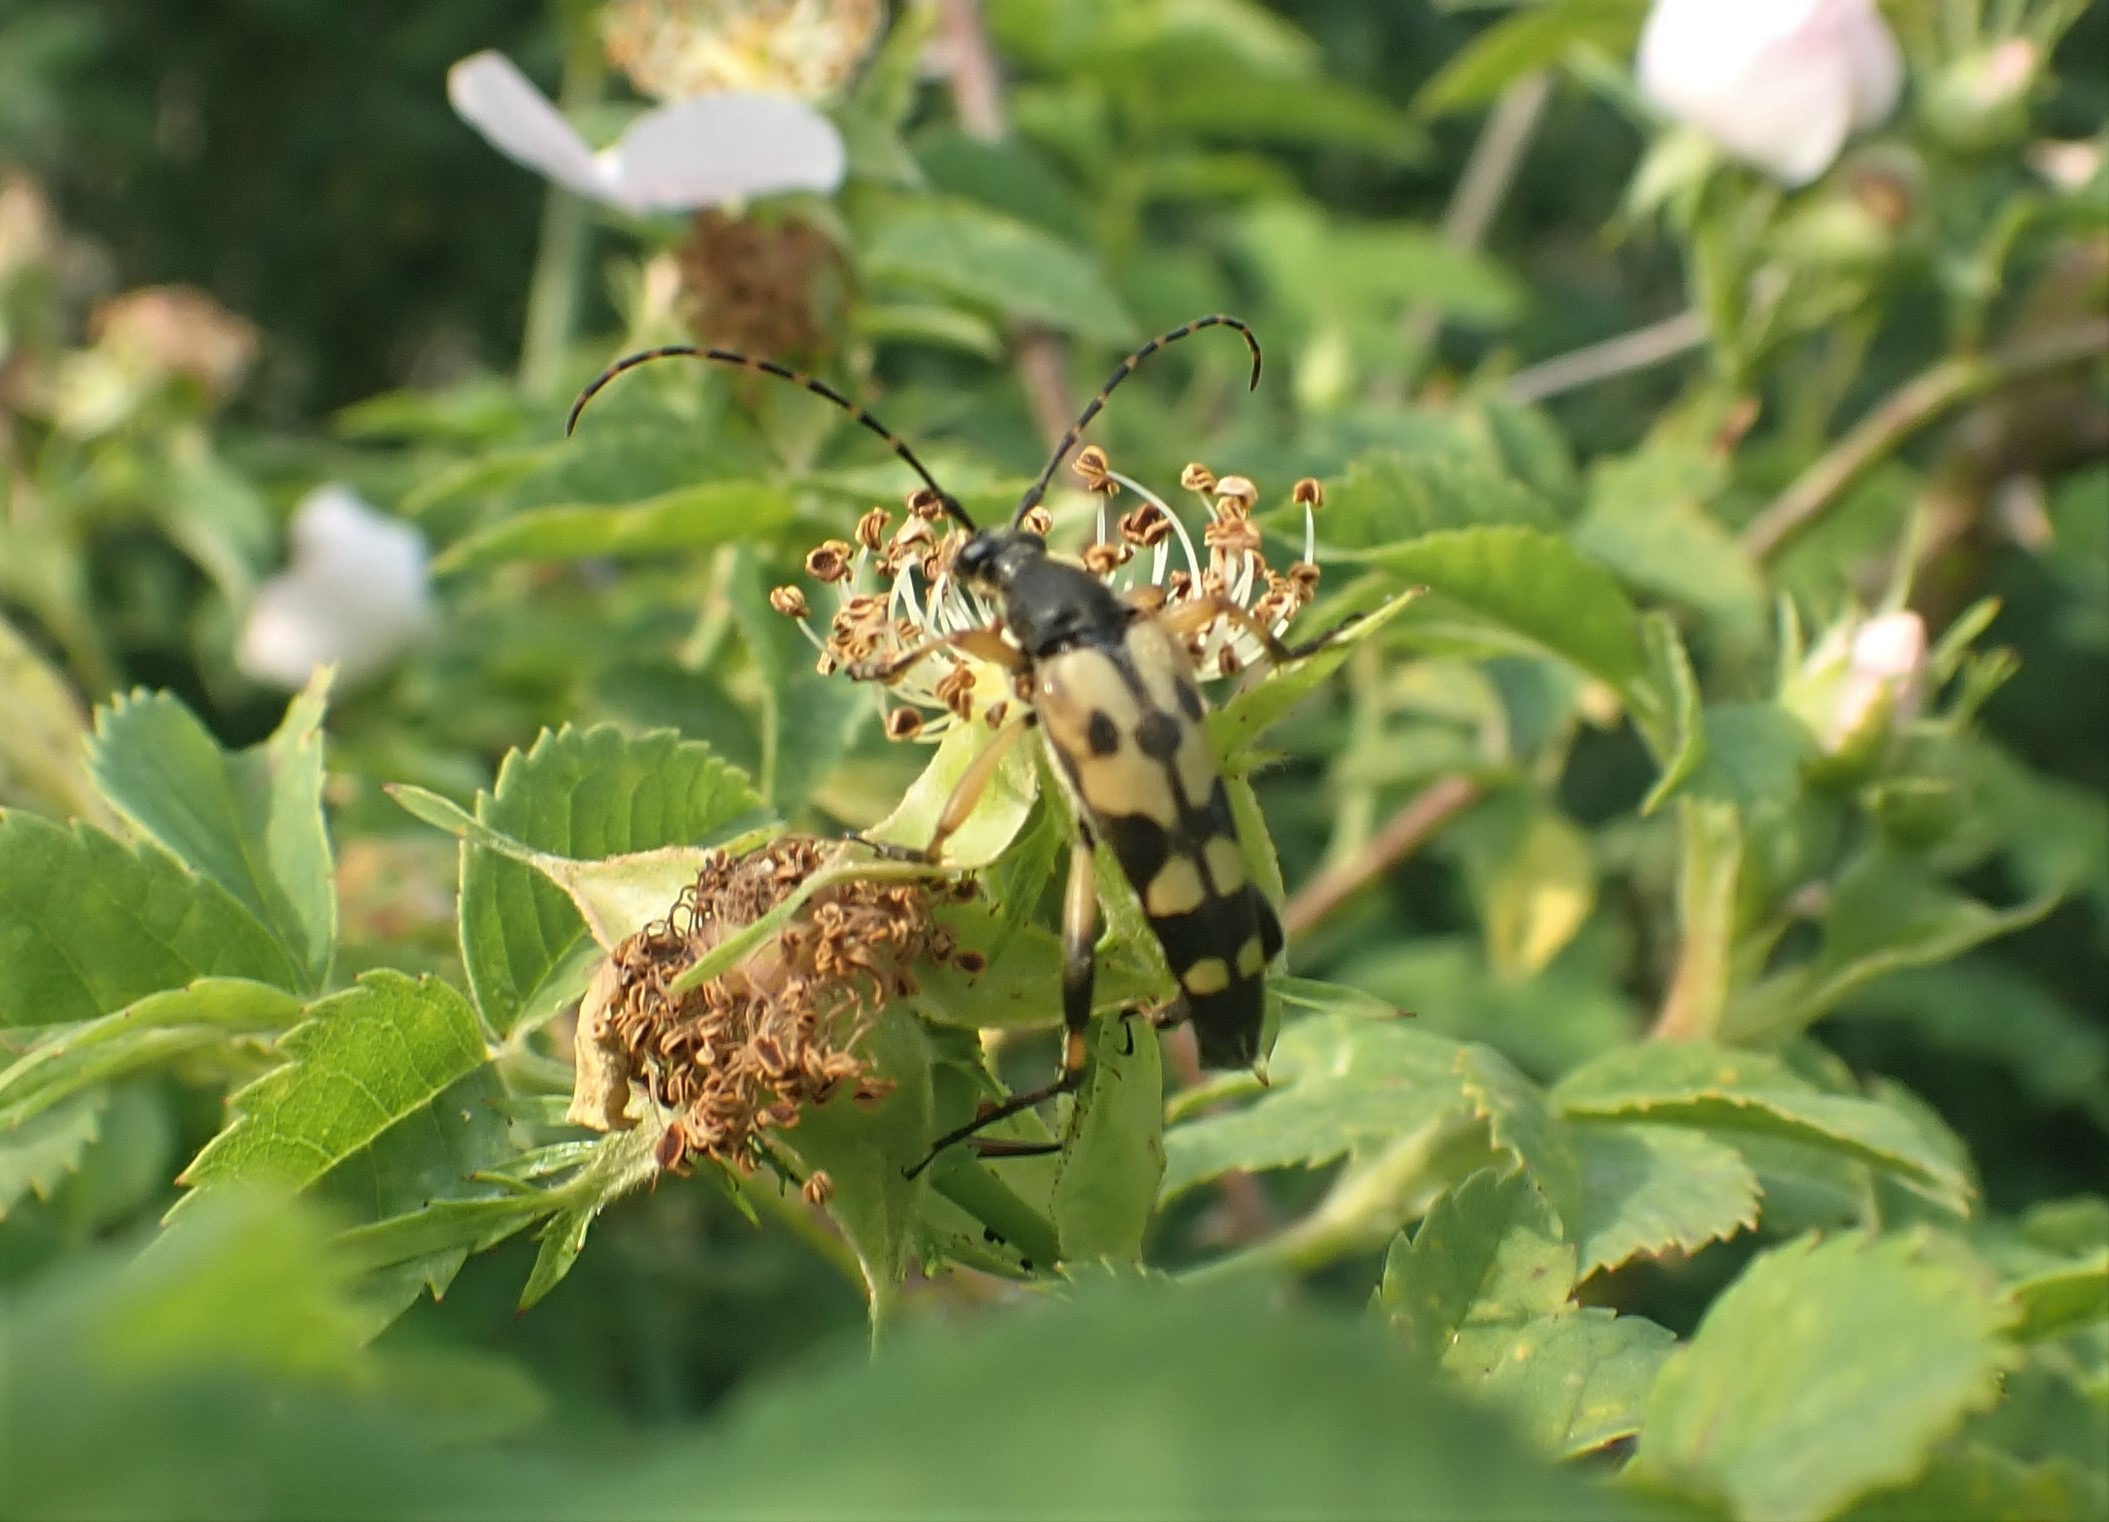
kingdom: Animalia
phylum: Arthropoda
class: Insecta
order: Coleoptera
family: Cerambycidae
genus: Rutpela
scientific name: Rutpela maculata
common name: Sydlig blomsterbuk
